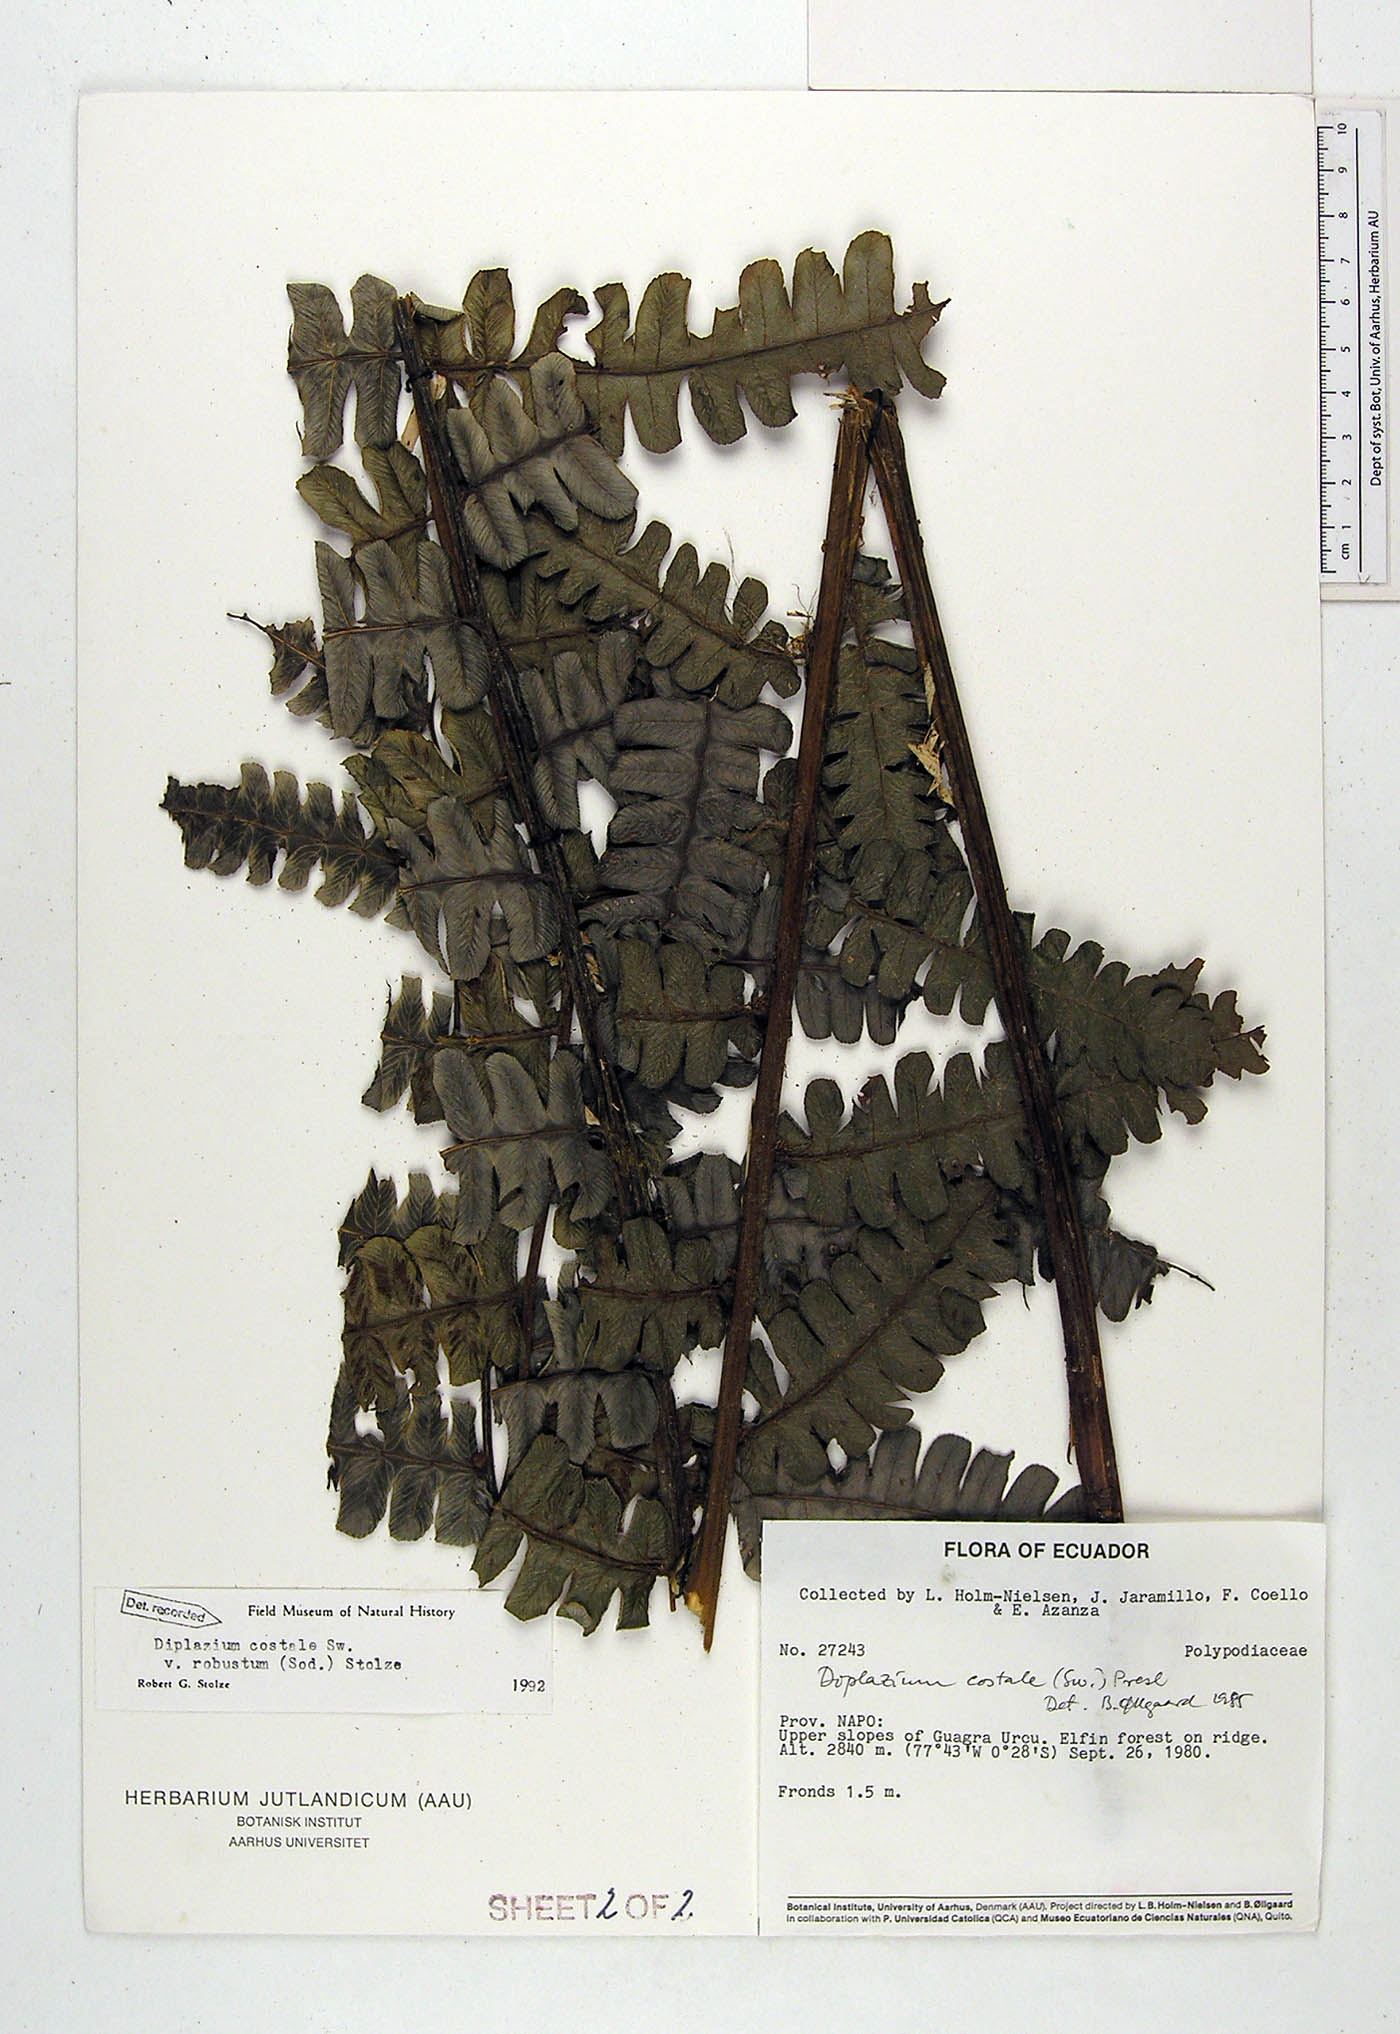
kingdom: Plantae
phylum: Tracheophyta
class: Polypodiopsida
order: Polypodiales
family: Athyriaceae
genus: Diplazium
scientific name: Diplazium costale
